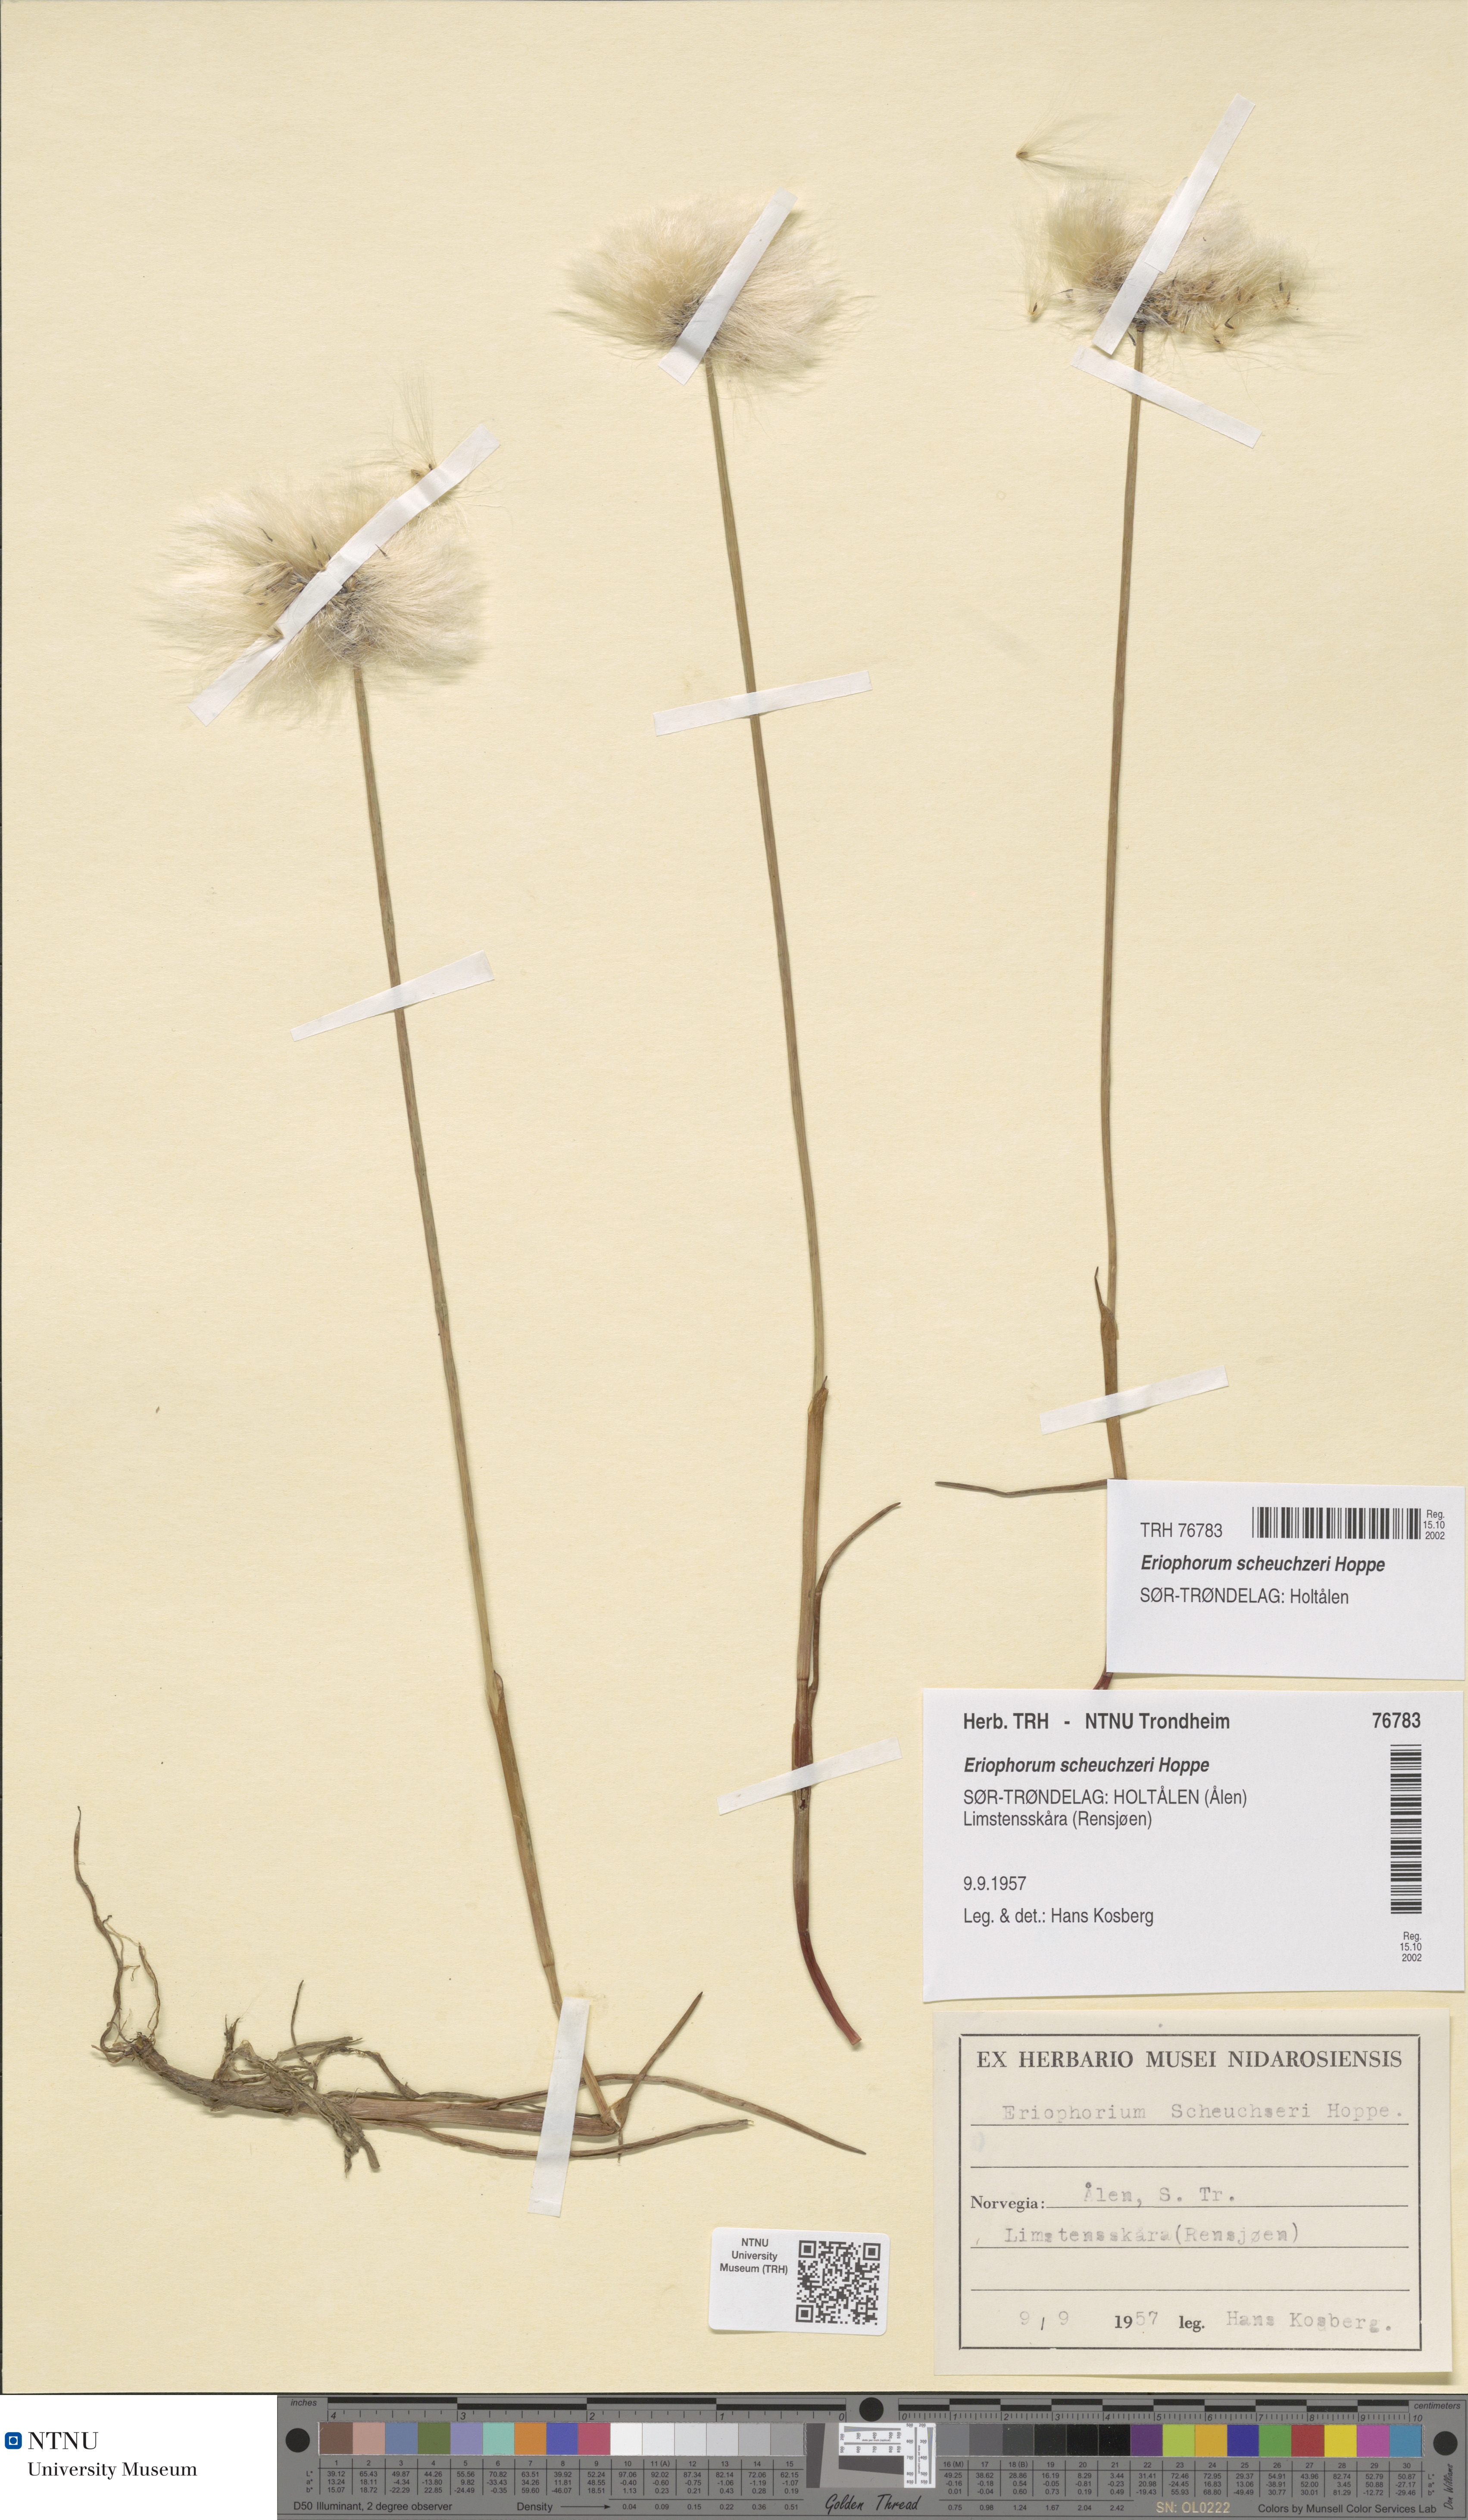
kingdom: Plantae
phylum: Tracheophyta
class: Liliopsida
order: Poales
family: Cyperaceae
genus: Eriophorum
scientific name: Eriophorum scheuchzeri
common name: Scheuchzer's cottongrass
